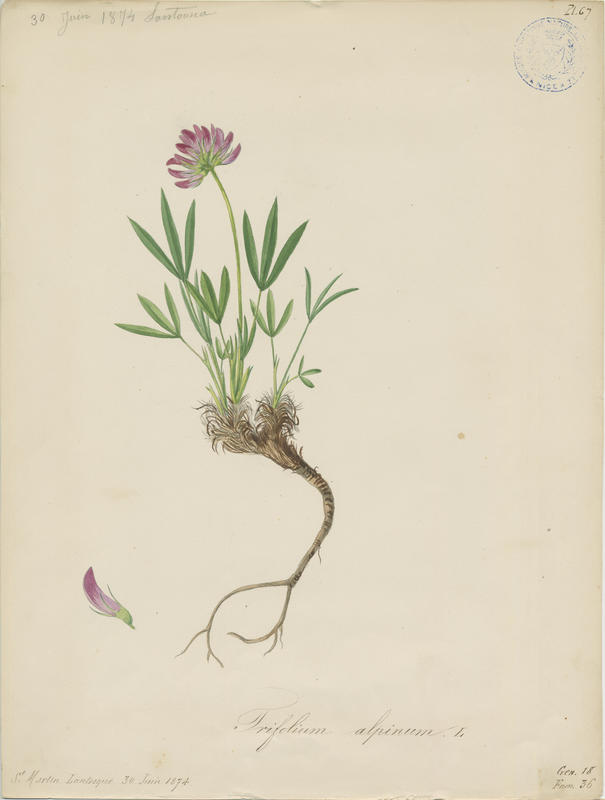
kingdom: Plantae
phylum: Tracheophyta
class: Magnoliopsida
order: Fabales
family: Fabaceae
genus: Trifolium
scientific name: Trifolium alpinum
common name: Alpine clover
